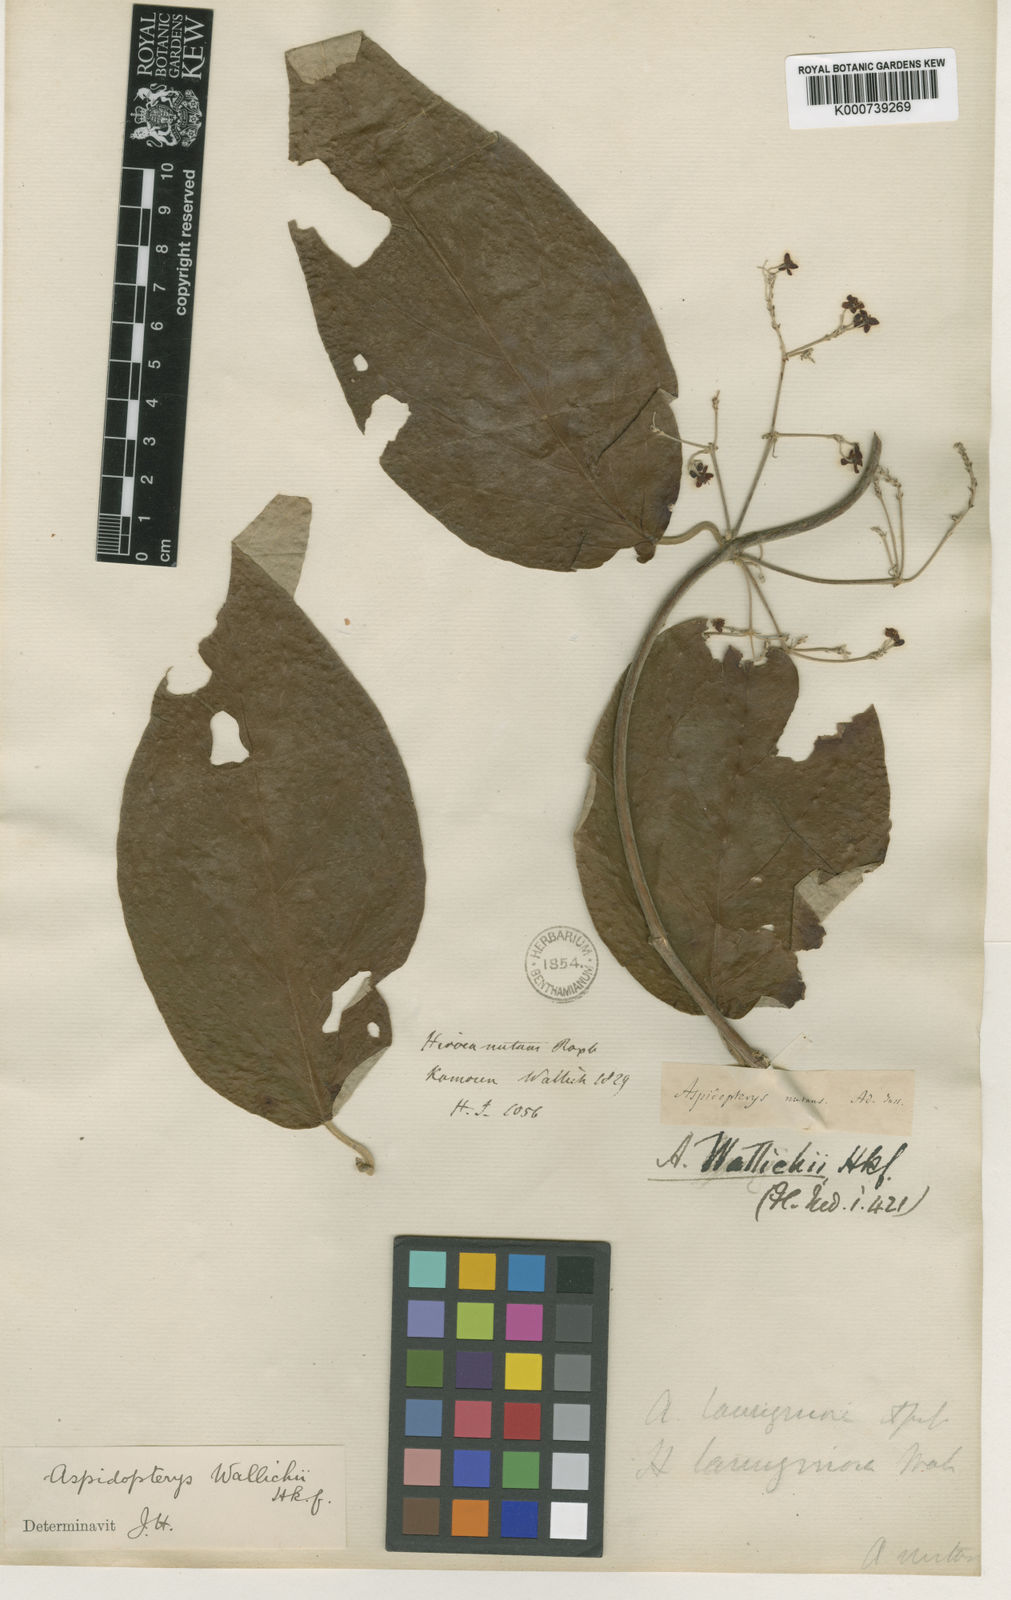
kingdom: Plantae
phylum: Tracheophyta
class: Magnoliopsida
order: Malpighiales
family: Malpighiaceae
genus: Aspidopterys
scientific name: Aspidopterys wallichii
